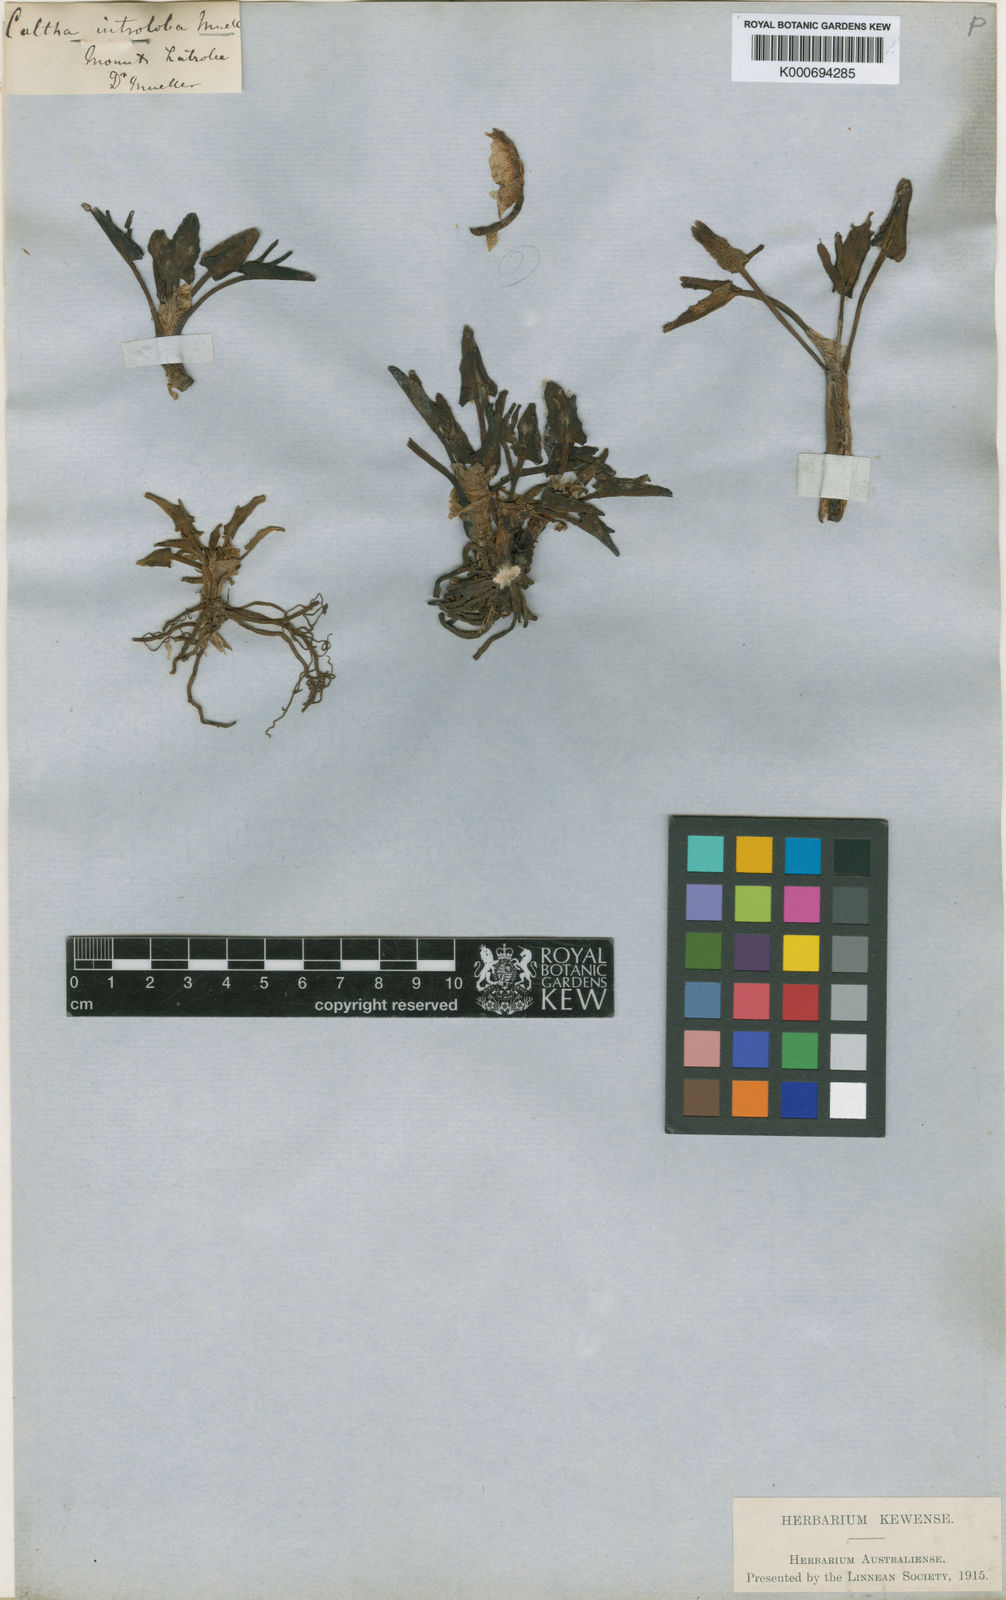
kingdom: Plantae
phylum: Tracheophyta
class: Magnoliopsida
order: Ranunculales
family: Ranunculaceae
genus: Caltha
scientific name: Caltha introloba
